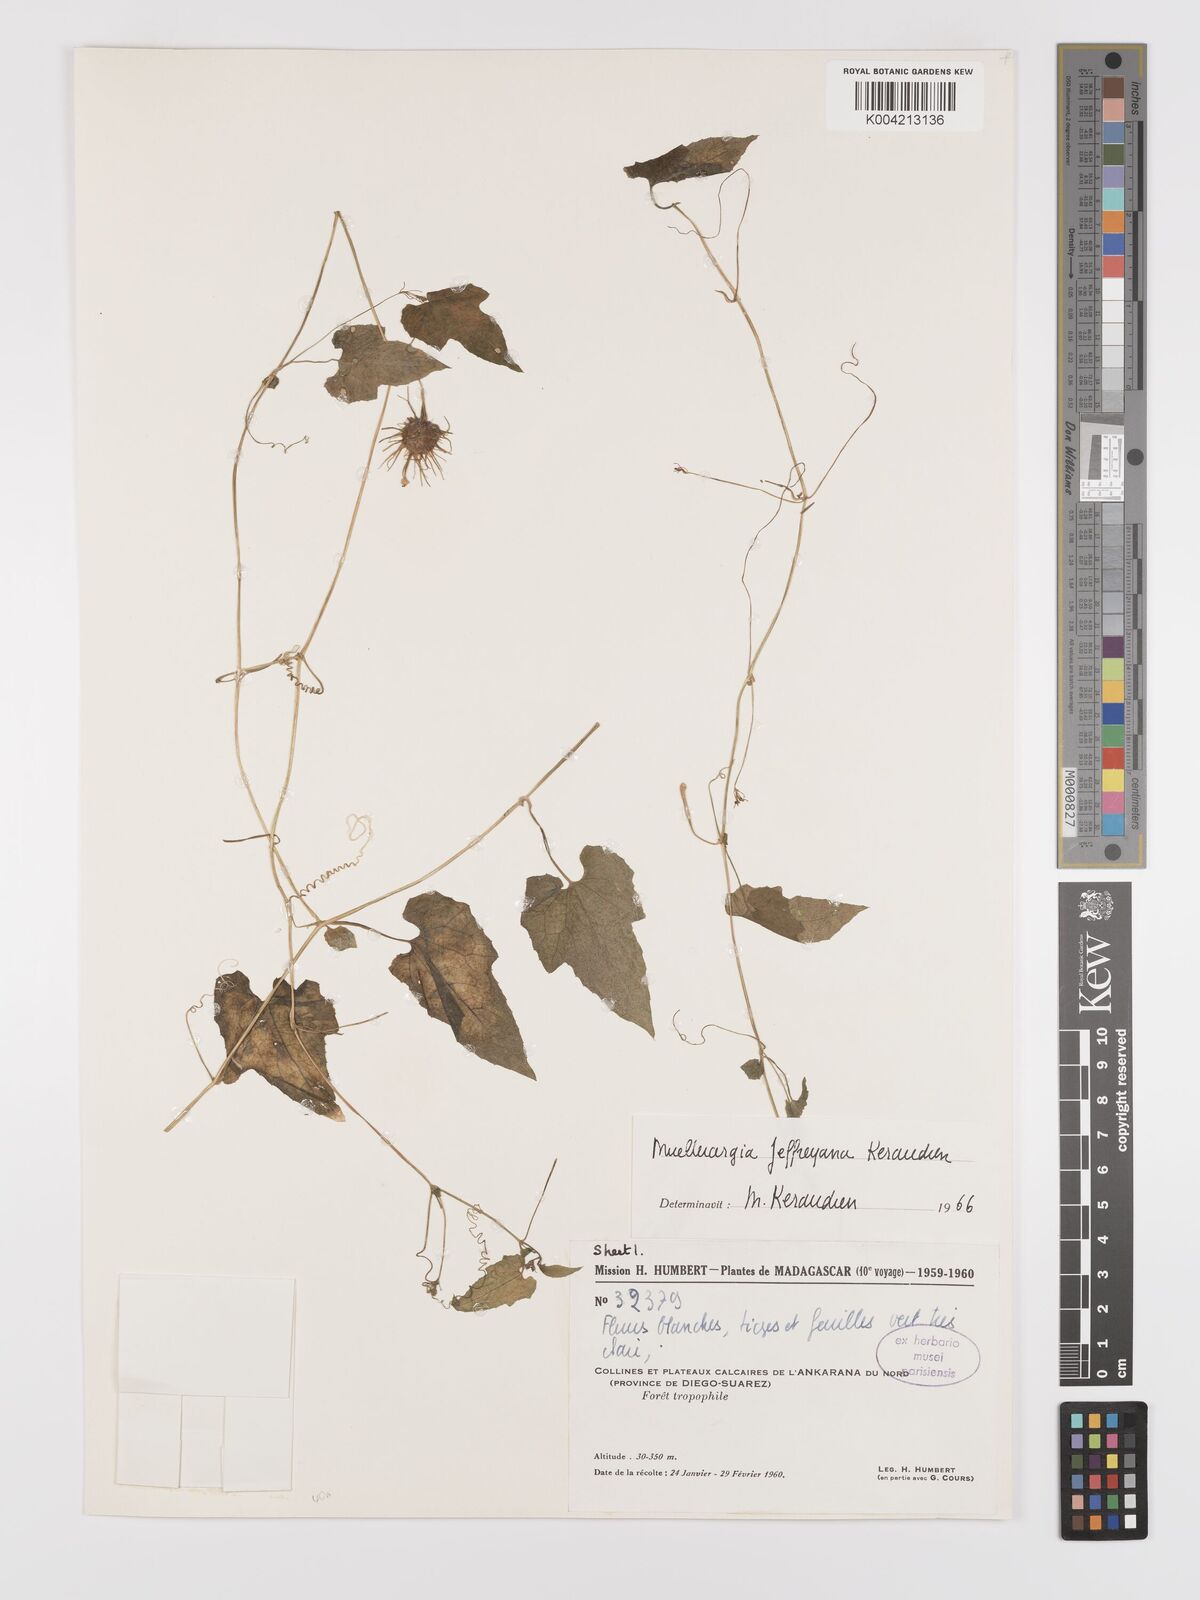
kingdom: Plantae
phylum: Tracheophyta
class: Magnoliopsida
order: Cucurbitales
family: Cucurbitaceae
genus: Muellerargia
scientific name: Muellerargia jeffreyana
